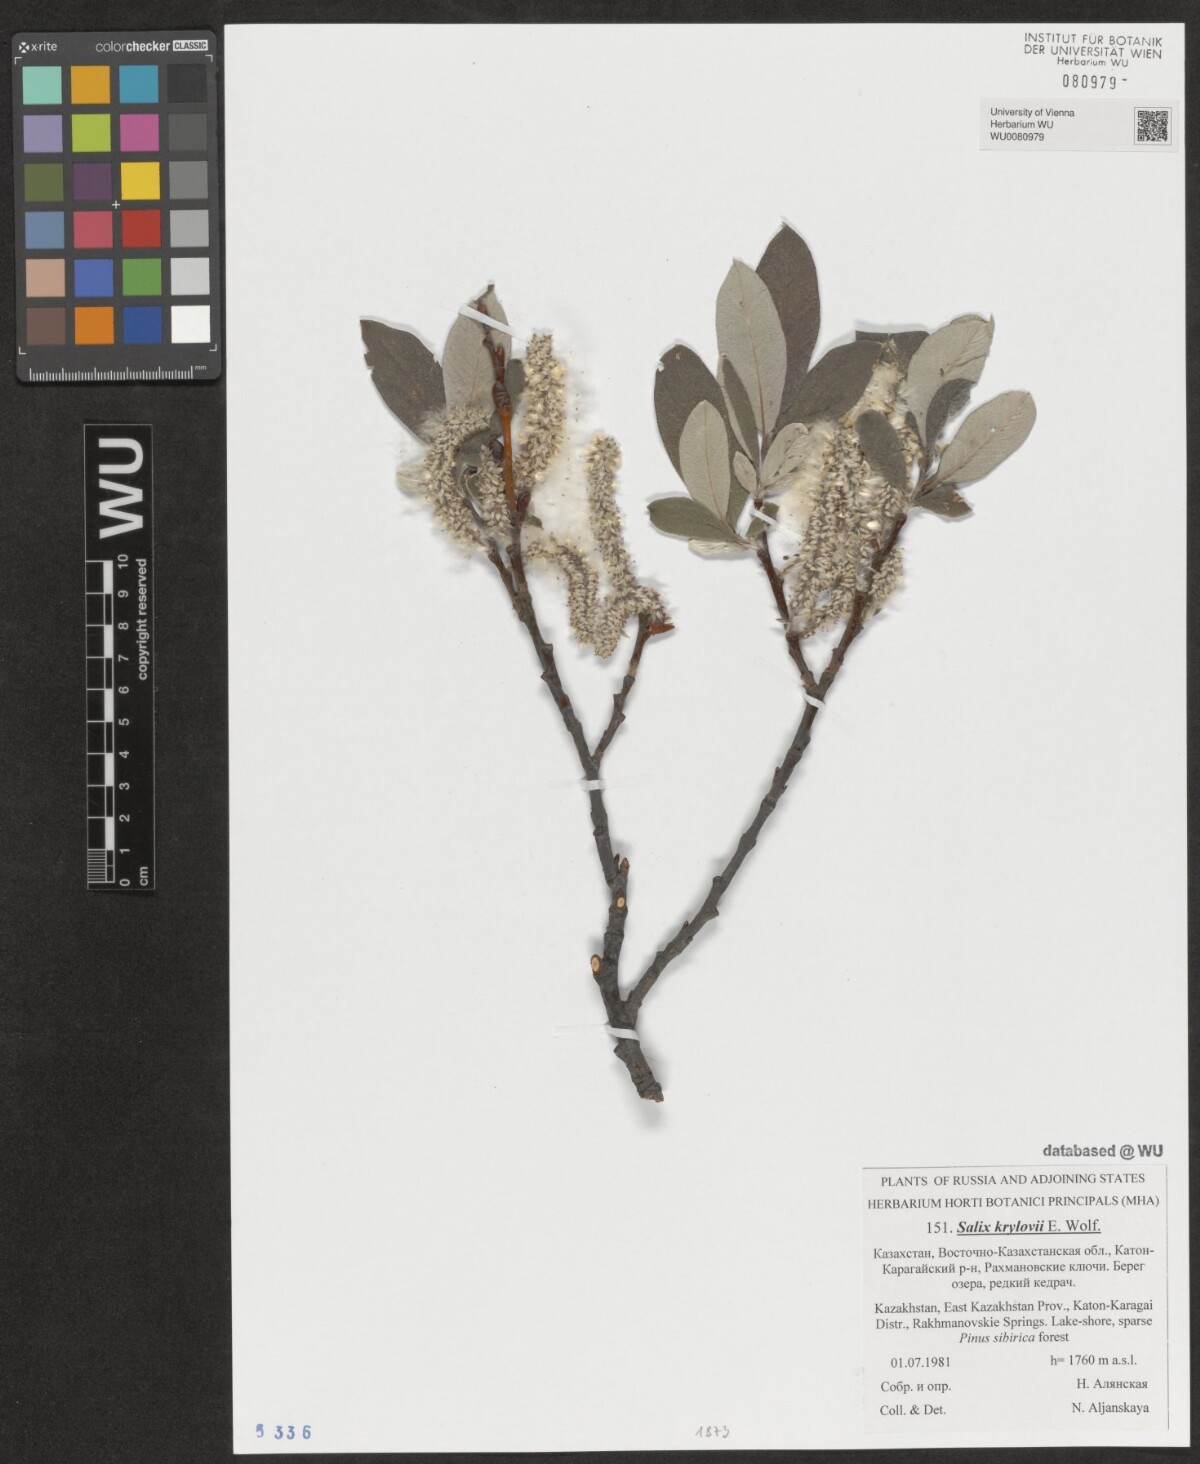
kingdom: Plantae
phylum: Tracheophyta
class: Magnoliopsida
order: Malpighiales
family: Salicaceae
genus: Salix
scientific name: Salix krylovii
